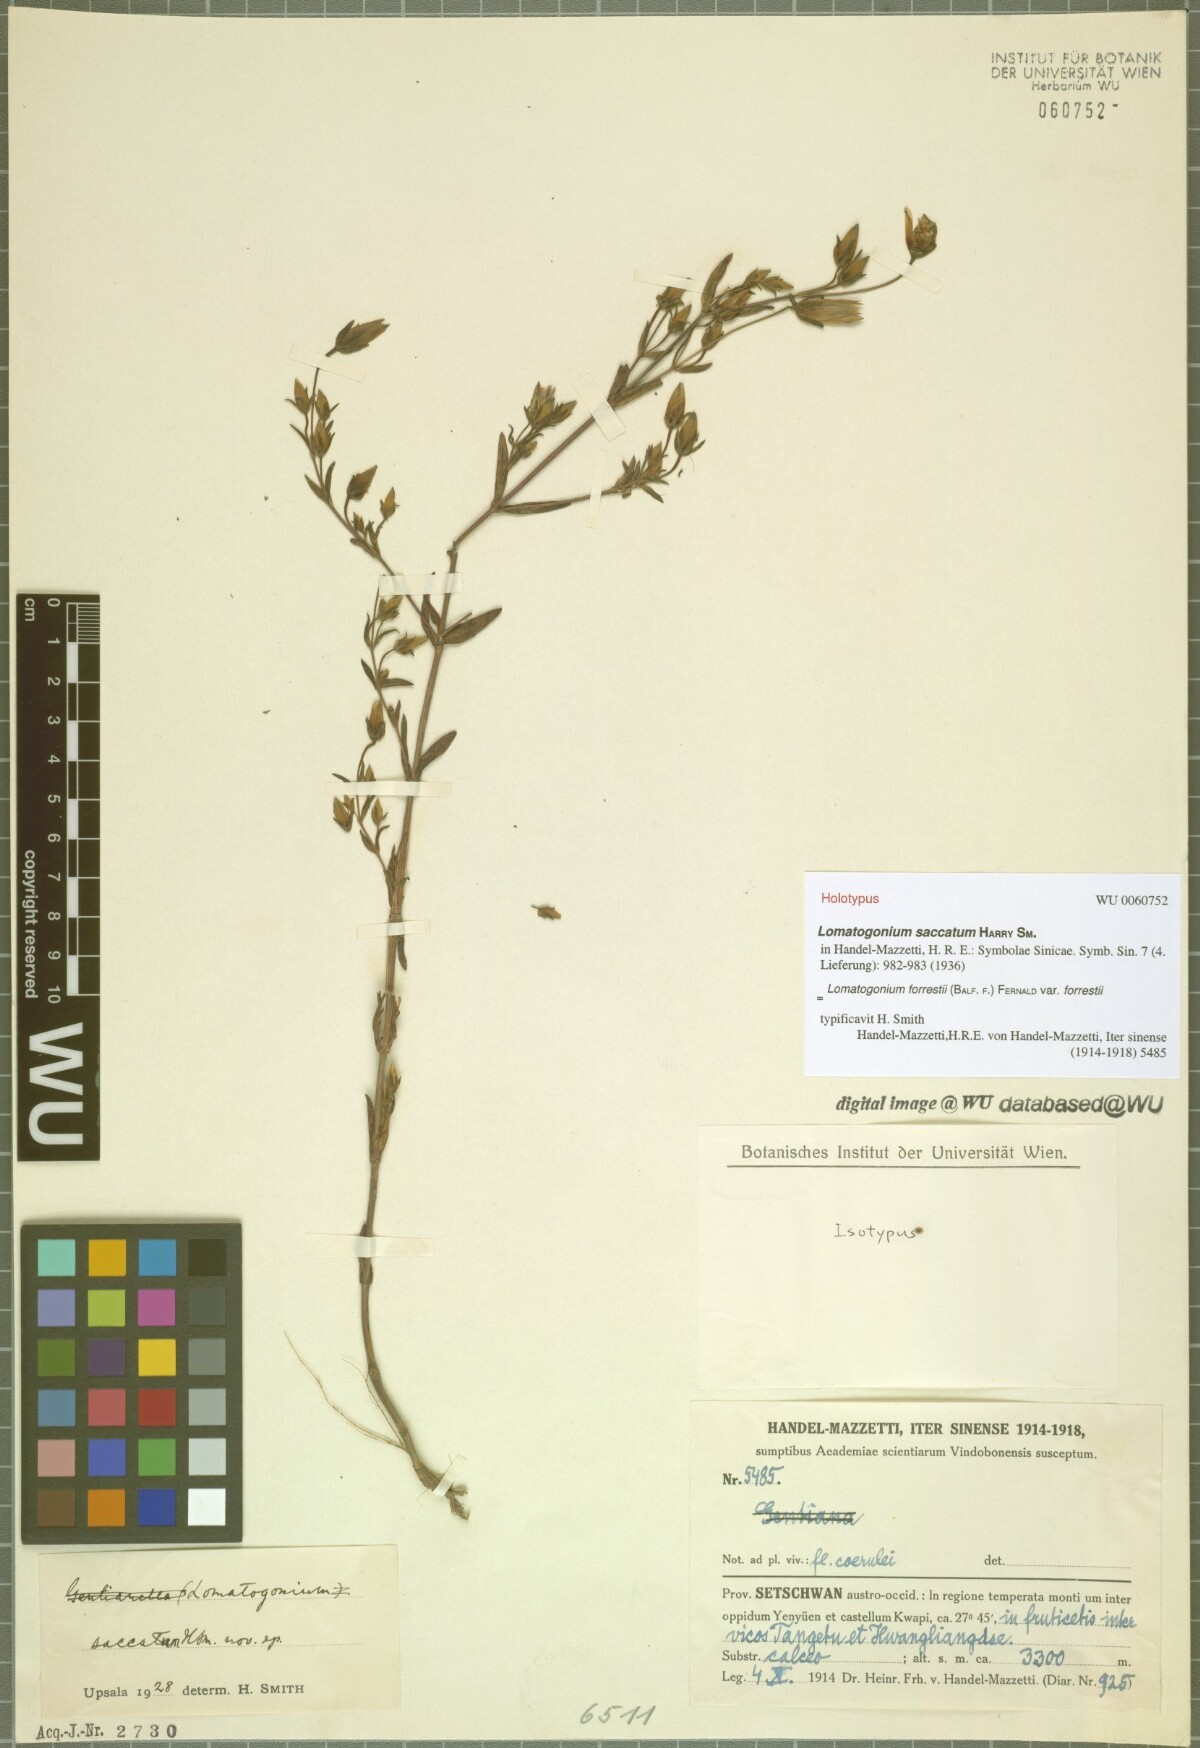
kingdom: Plantae
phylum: Tracheophyta
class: Magnoliopsida
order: Gentianales
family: Gentianaceae
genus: Lomatogonium
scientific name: Lomatogonium forrestii
